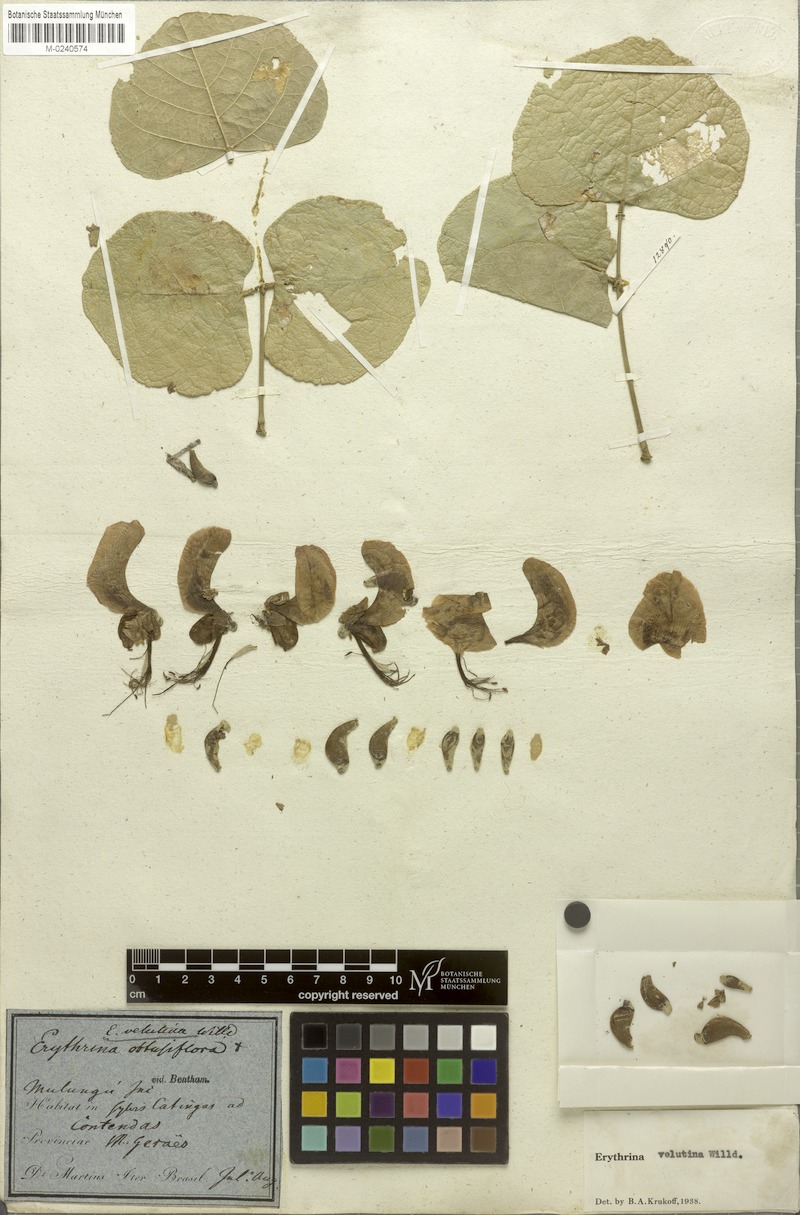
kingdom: Plantae
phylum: Tracheophyta
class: Magnoliopsida
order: Fabales
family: Fabaceae
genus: Erythrina
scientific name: Erythrina velutina
